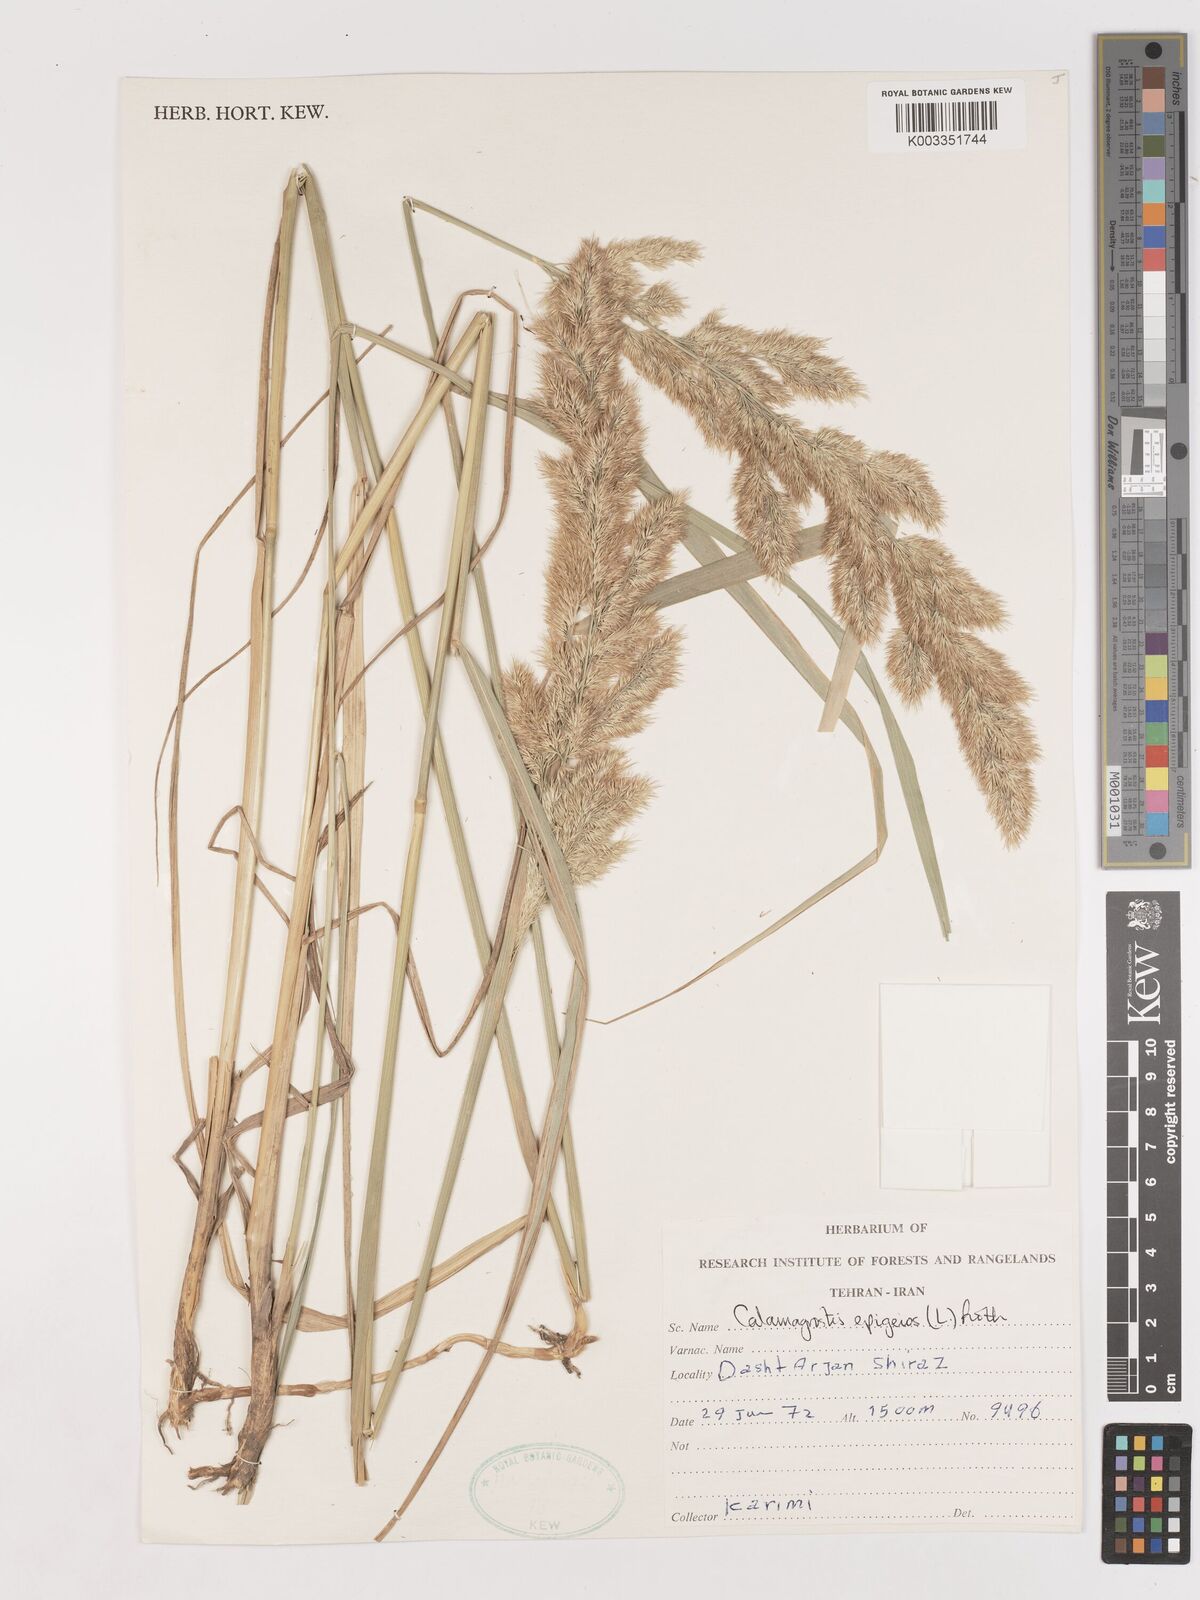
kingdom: Plantae
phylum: Tracheophyta
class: Liliopsida
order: Poales
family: Poaceae
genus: Calamagrostis
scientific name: Calamagrostis
